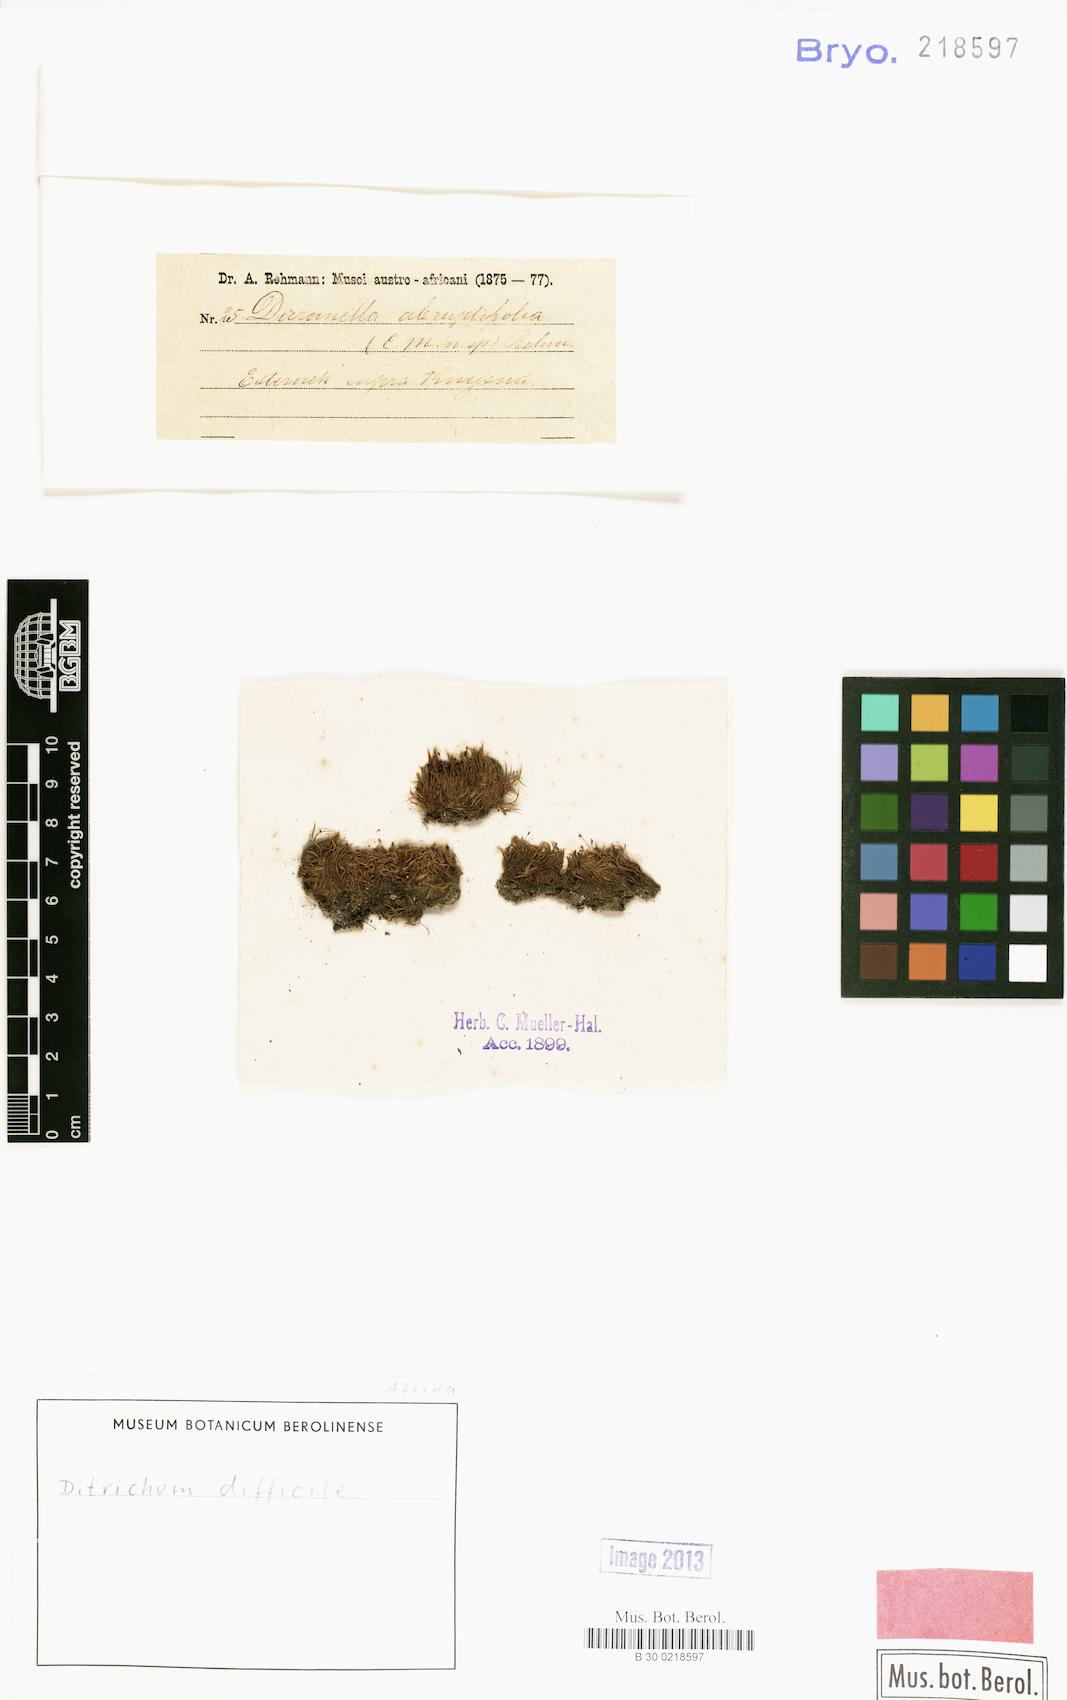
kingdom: Plantae
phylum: Bryophyta
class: Bryopsida
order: Dicranales
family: Ditrichaceae
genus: Ditrichum
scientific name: Ditrichum difficile
